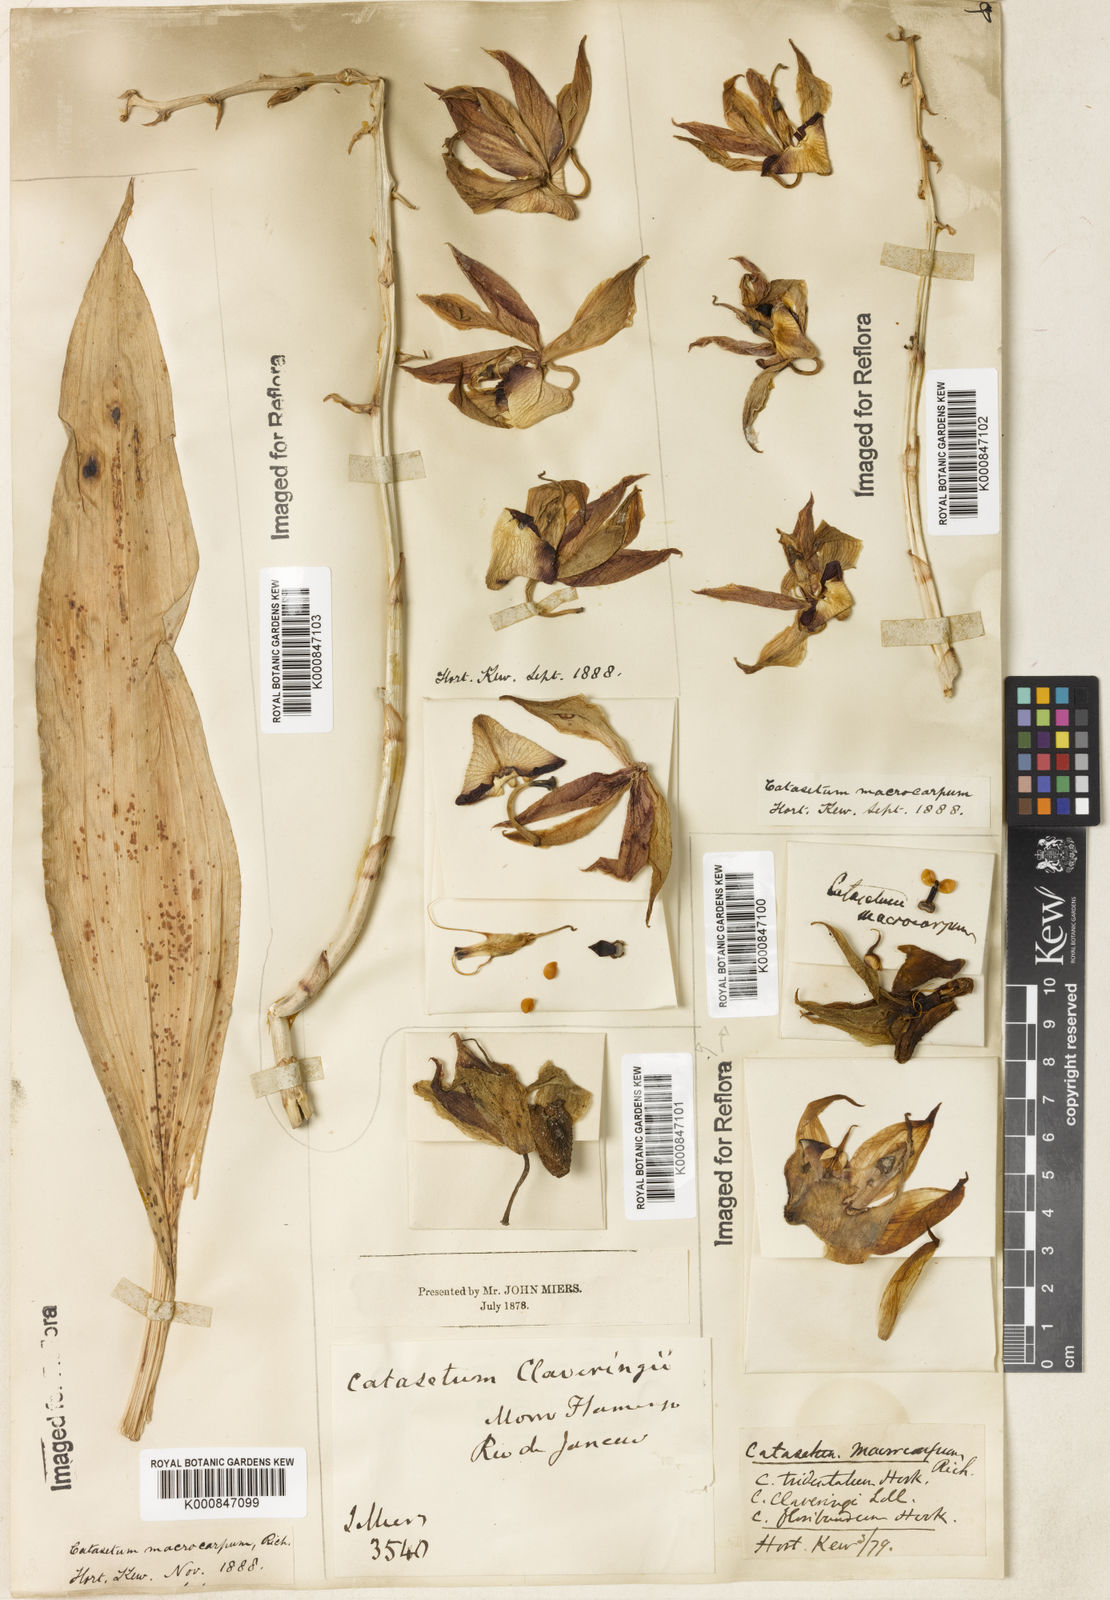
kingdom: Plantae
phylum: Tracheophyta
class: Liliopsida
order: Asparagales
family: Orchidaceae
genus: Catasetum
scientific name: Catasetum macrocarpum
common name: Jumping orchid
